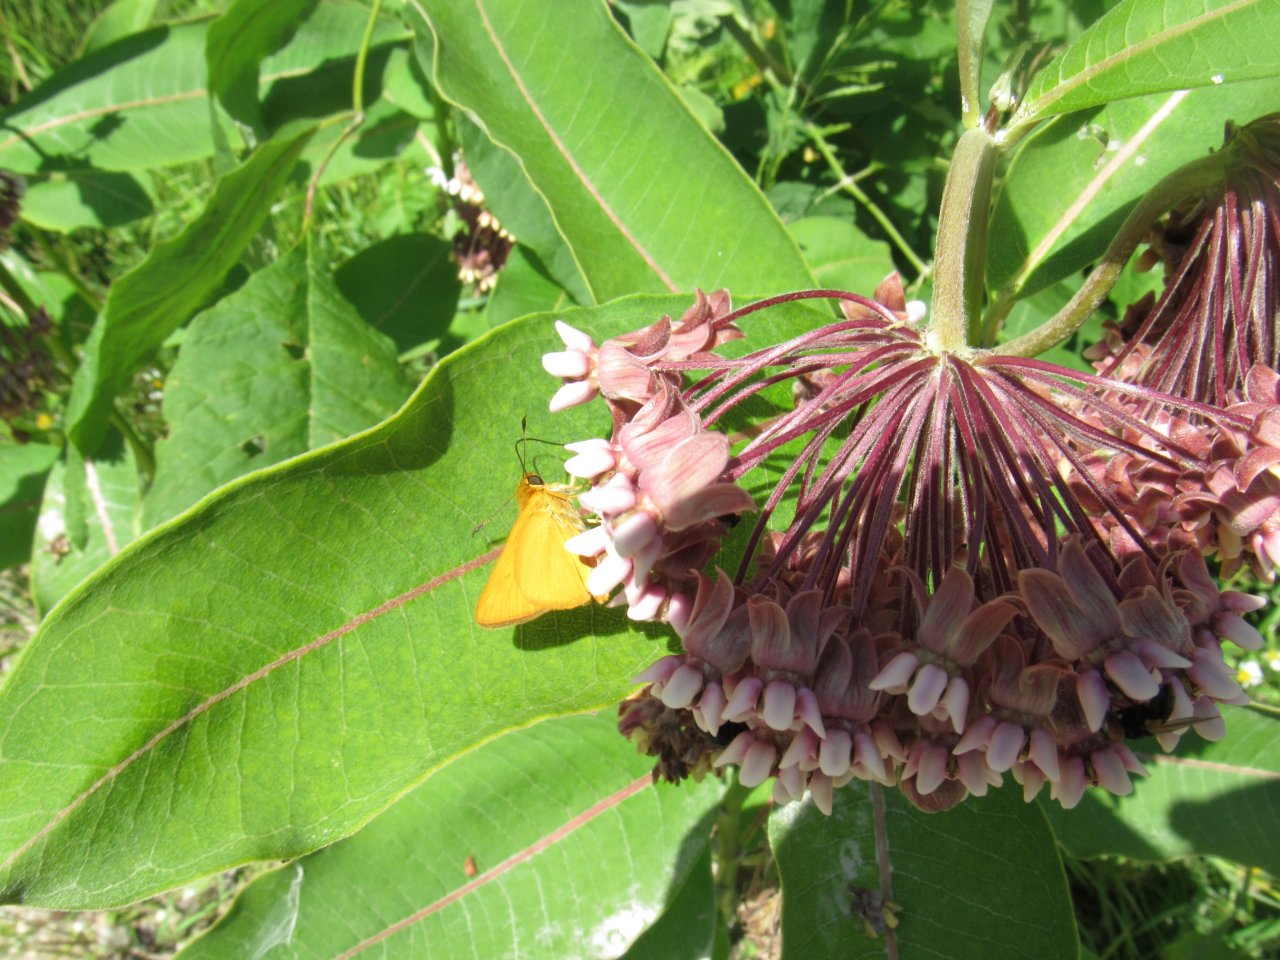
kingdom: Animalia
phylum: Arthropoda
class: Insecta
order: Lepidoptera
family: Hesperiidae
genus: Atrytone
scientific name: Atrytone delaware
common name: Delaware Skipper
